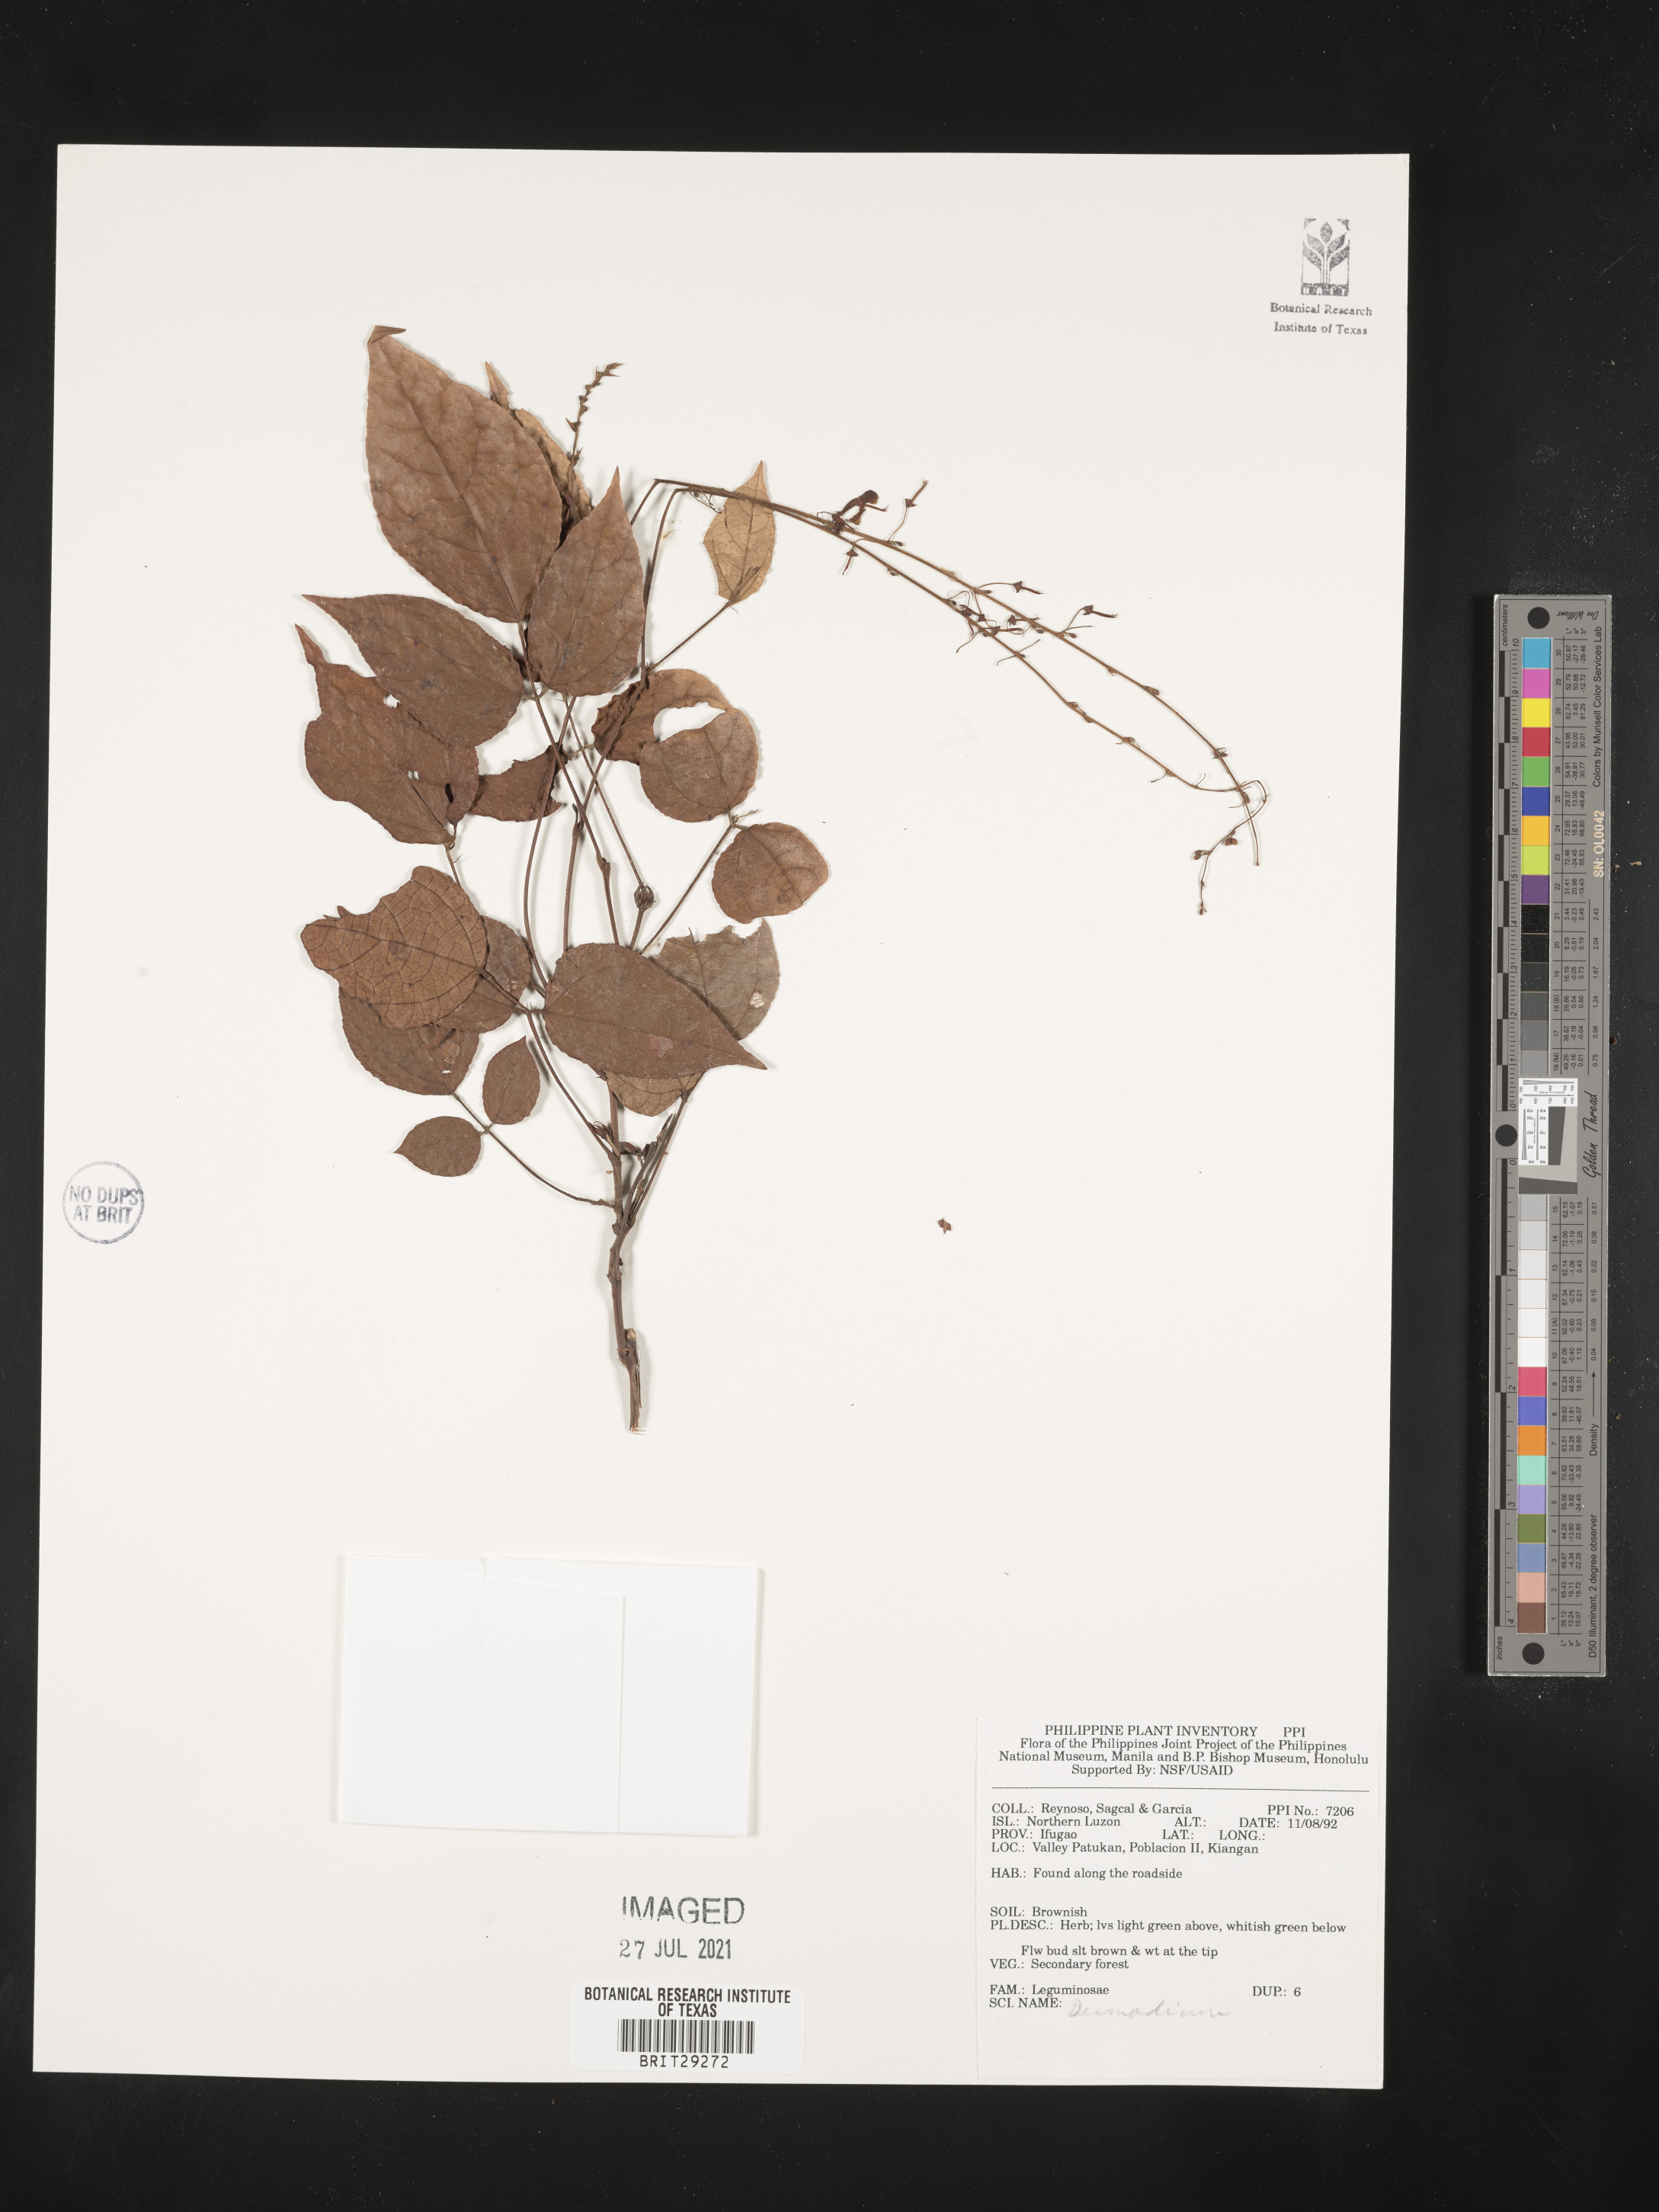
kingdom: Plantae
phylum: Tracheophyta
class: Magnoliopsida
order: Fabales
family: Fabaceae
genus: Desmodium
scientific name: Desmodium
